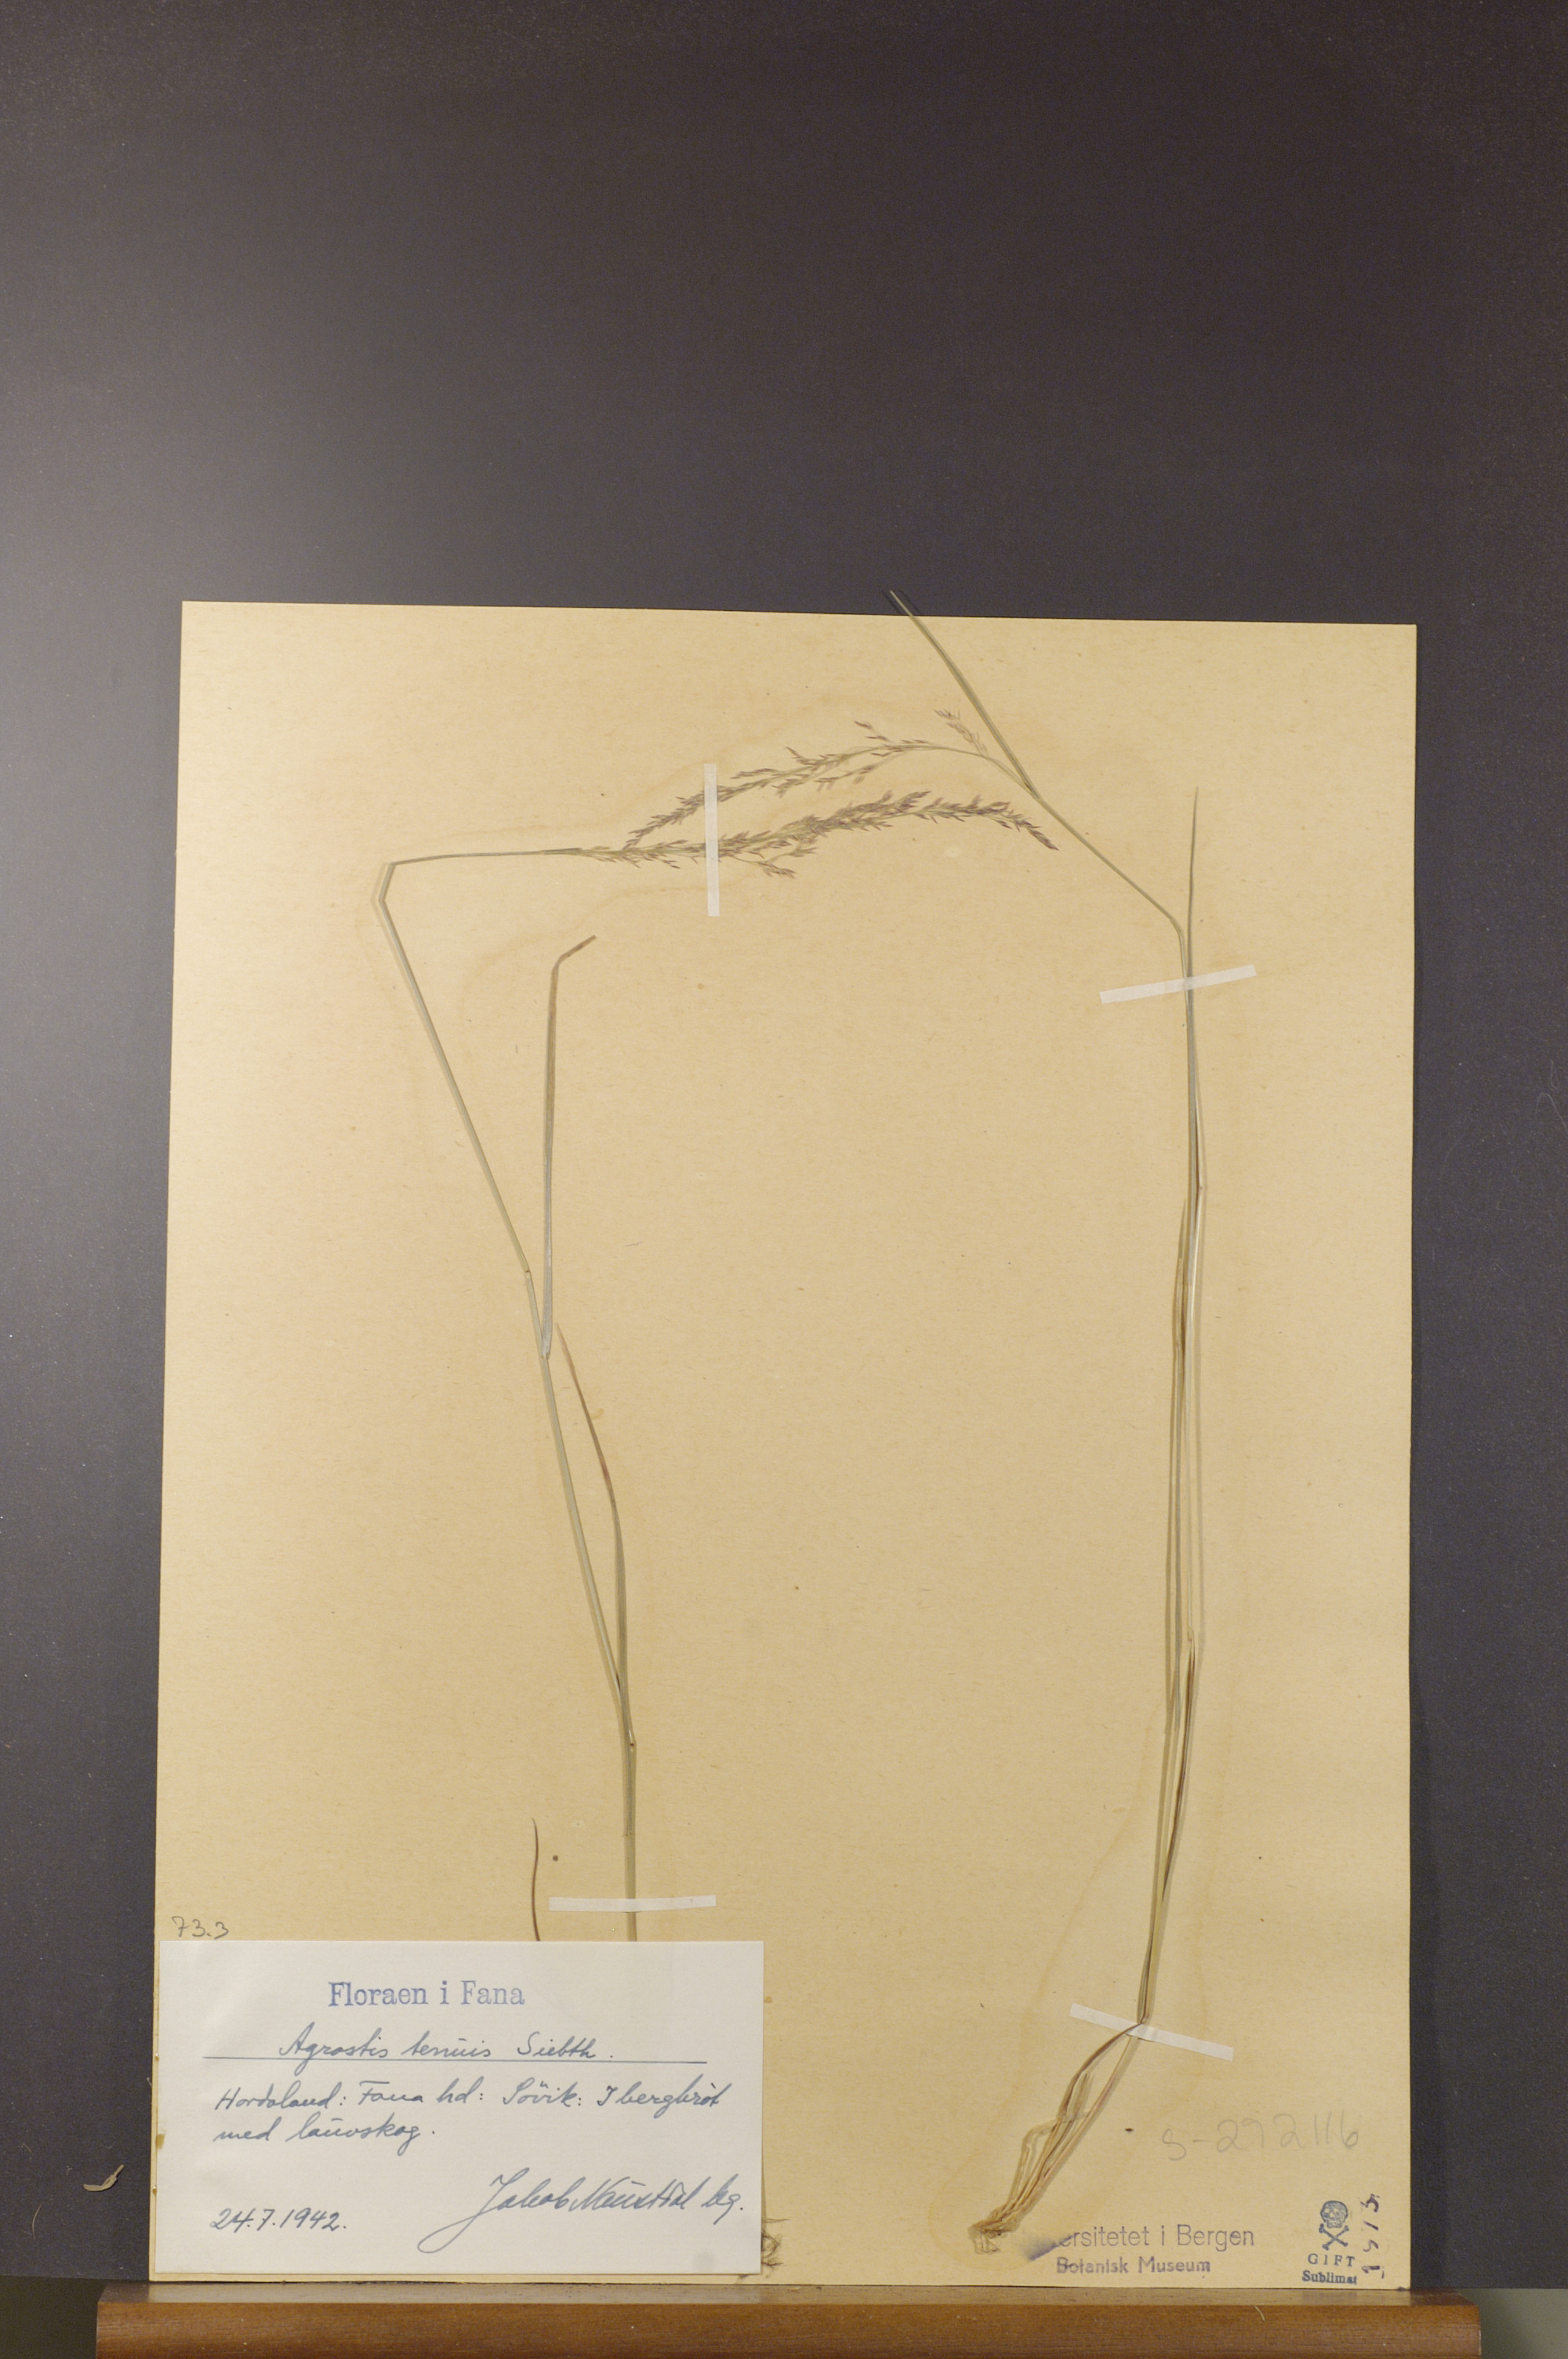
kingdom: Plantae
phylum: Tracheophyta
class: Liliopsida
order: Poales
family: Poaceae
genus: Agrostis
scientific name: Agrostis capillaris
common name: Colonial bentgrass
